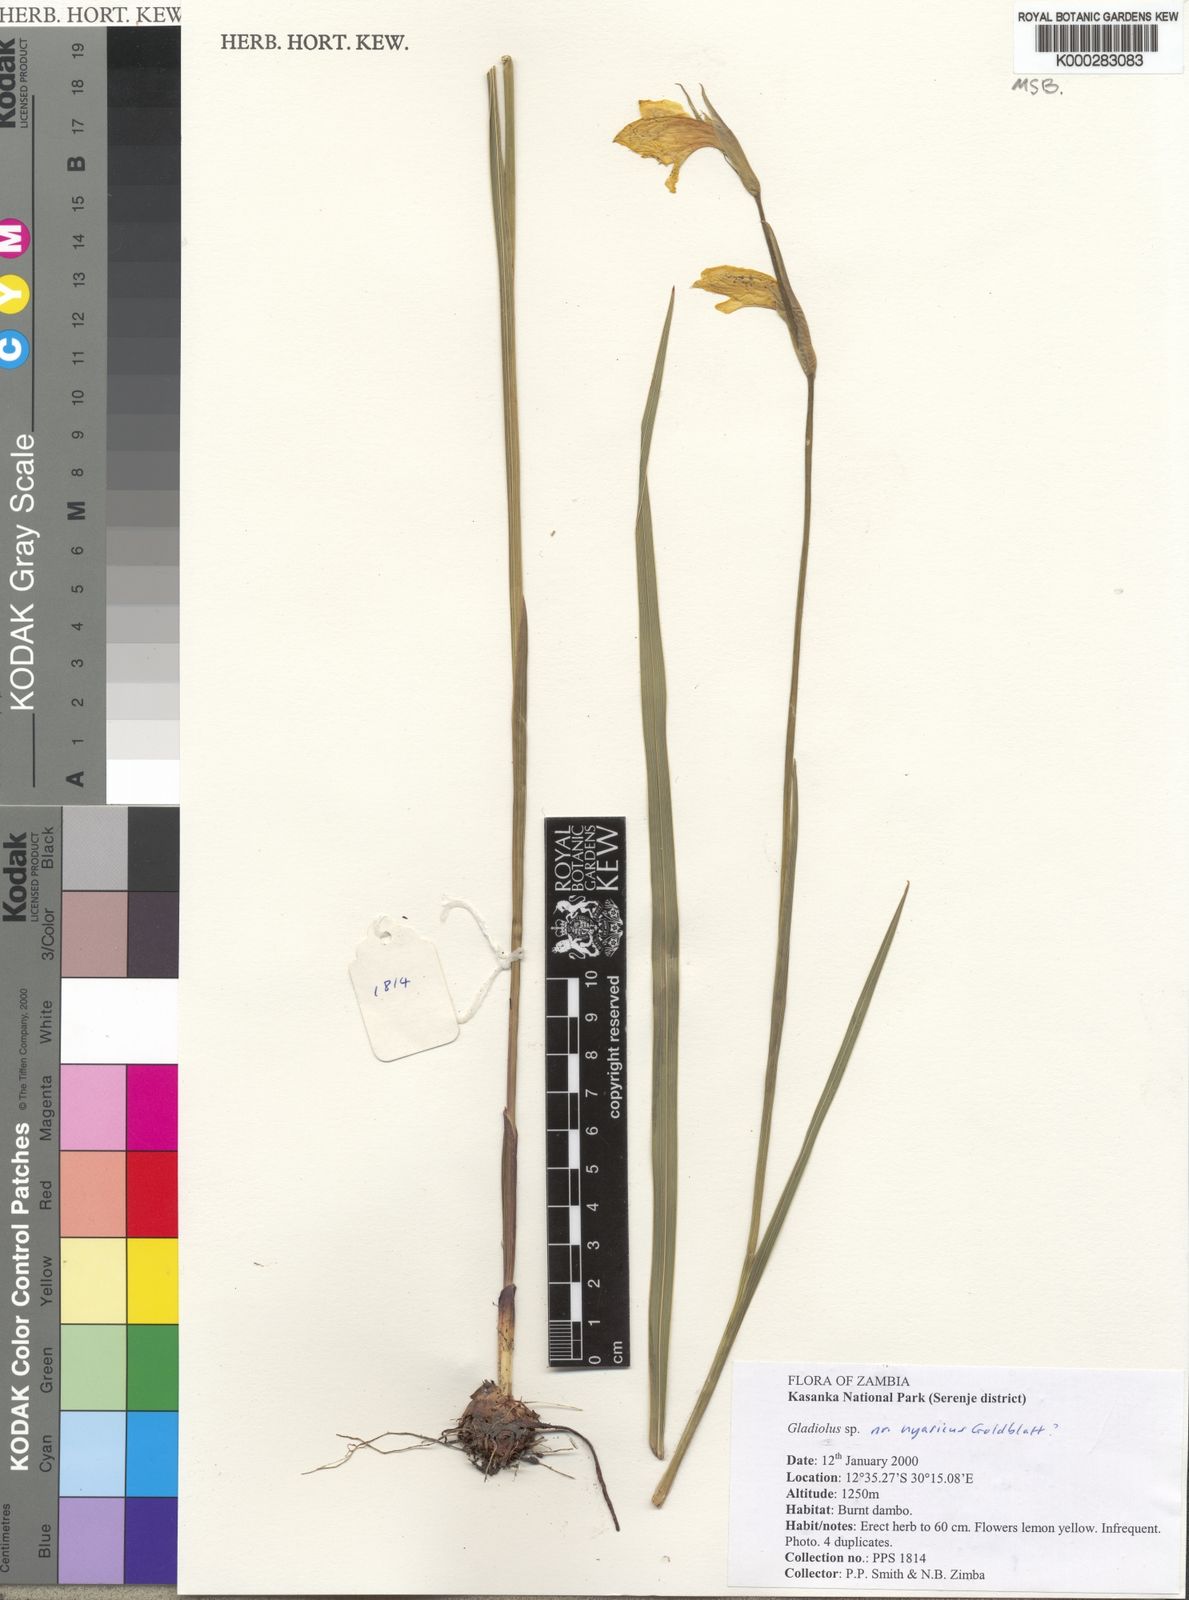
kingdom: Plantae
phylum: Tracheophyta
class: Liliopsida
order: Asparagales
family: Iridaceae
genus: Gladiolus
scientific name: Gladiolus nyasicus
